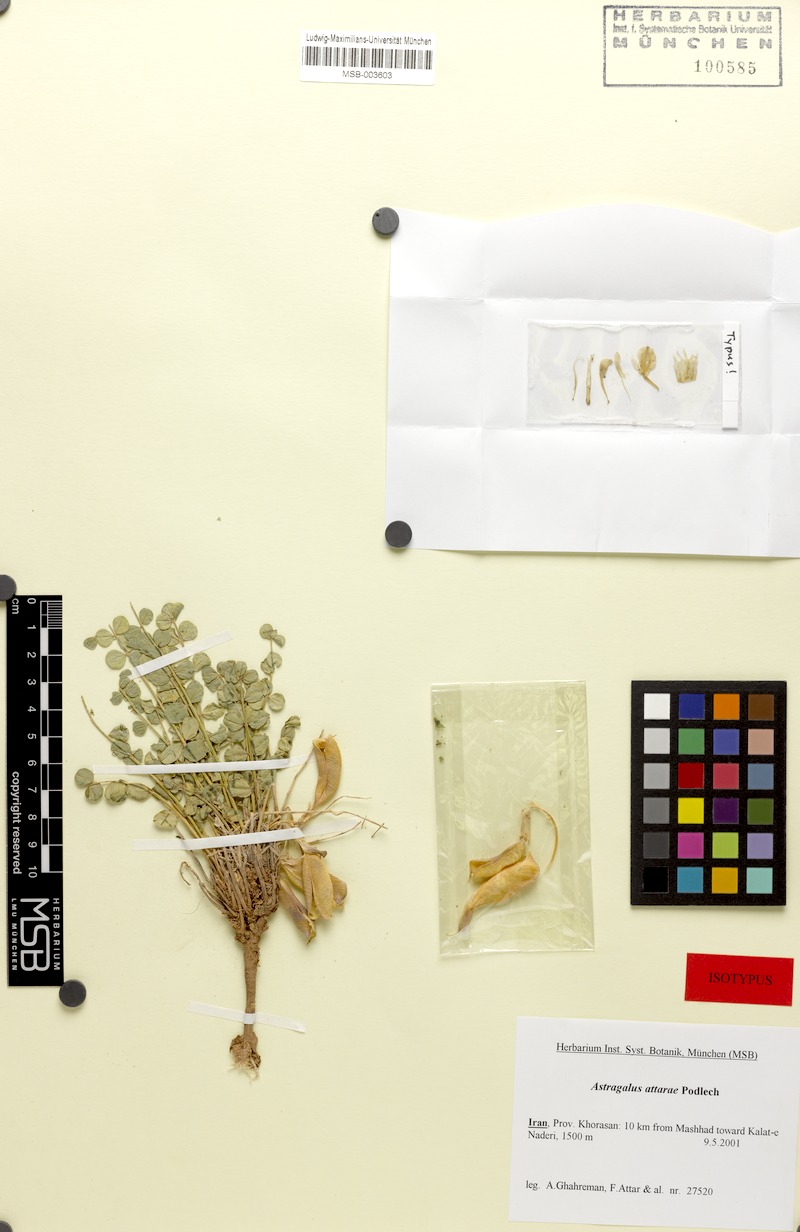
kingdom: Plantae
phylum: Tracheophyta
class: Magnoliopsida
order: Fabales
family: Fabaceae
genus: Astragalus
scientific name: Astragalus zangooeianus
